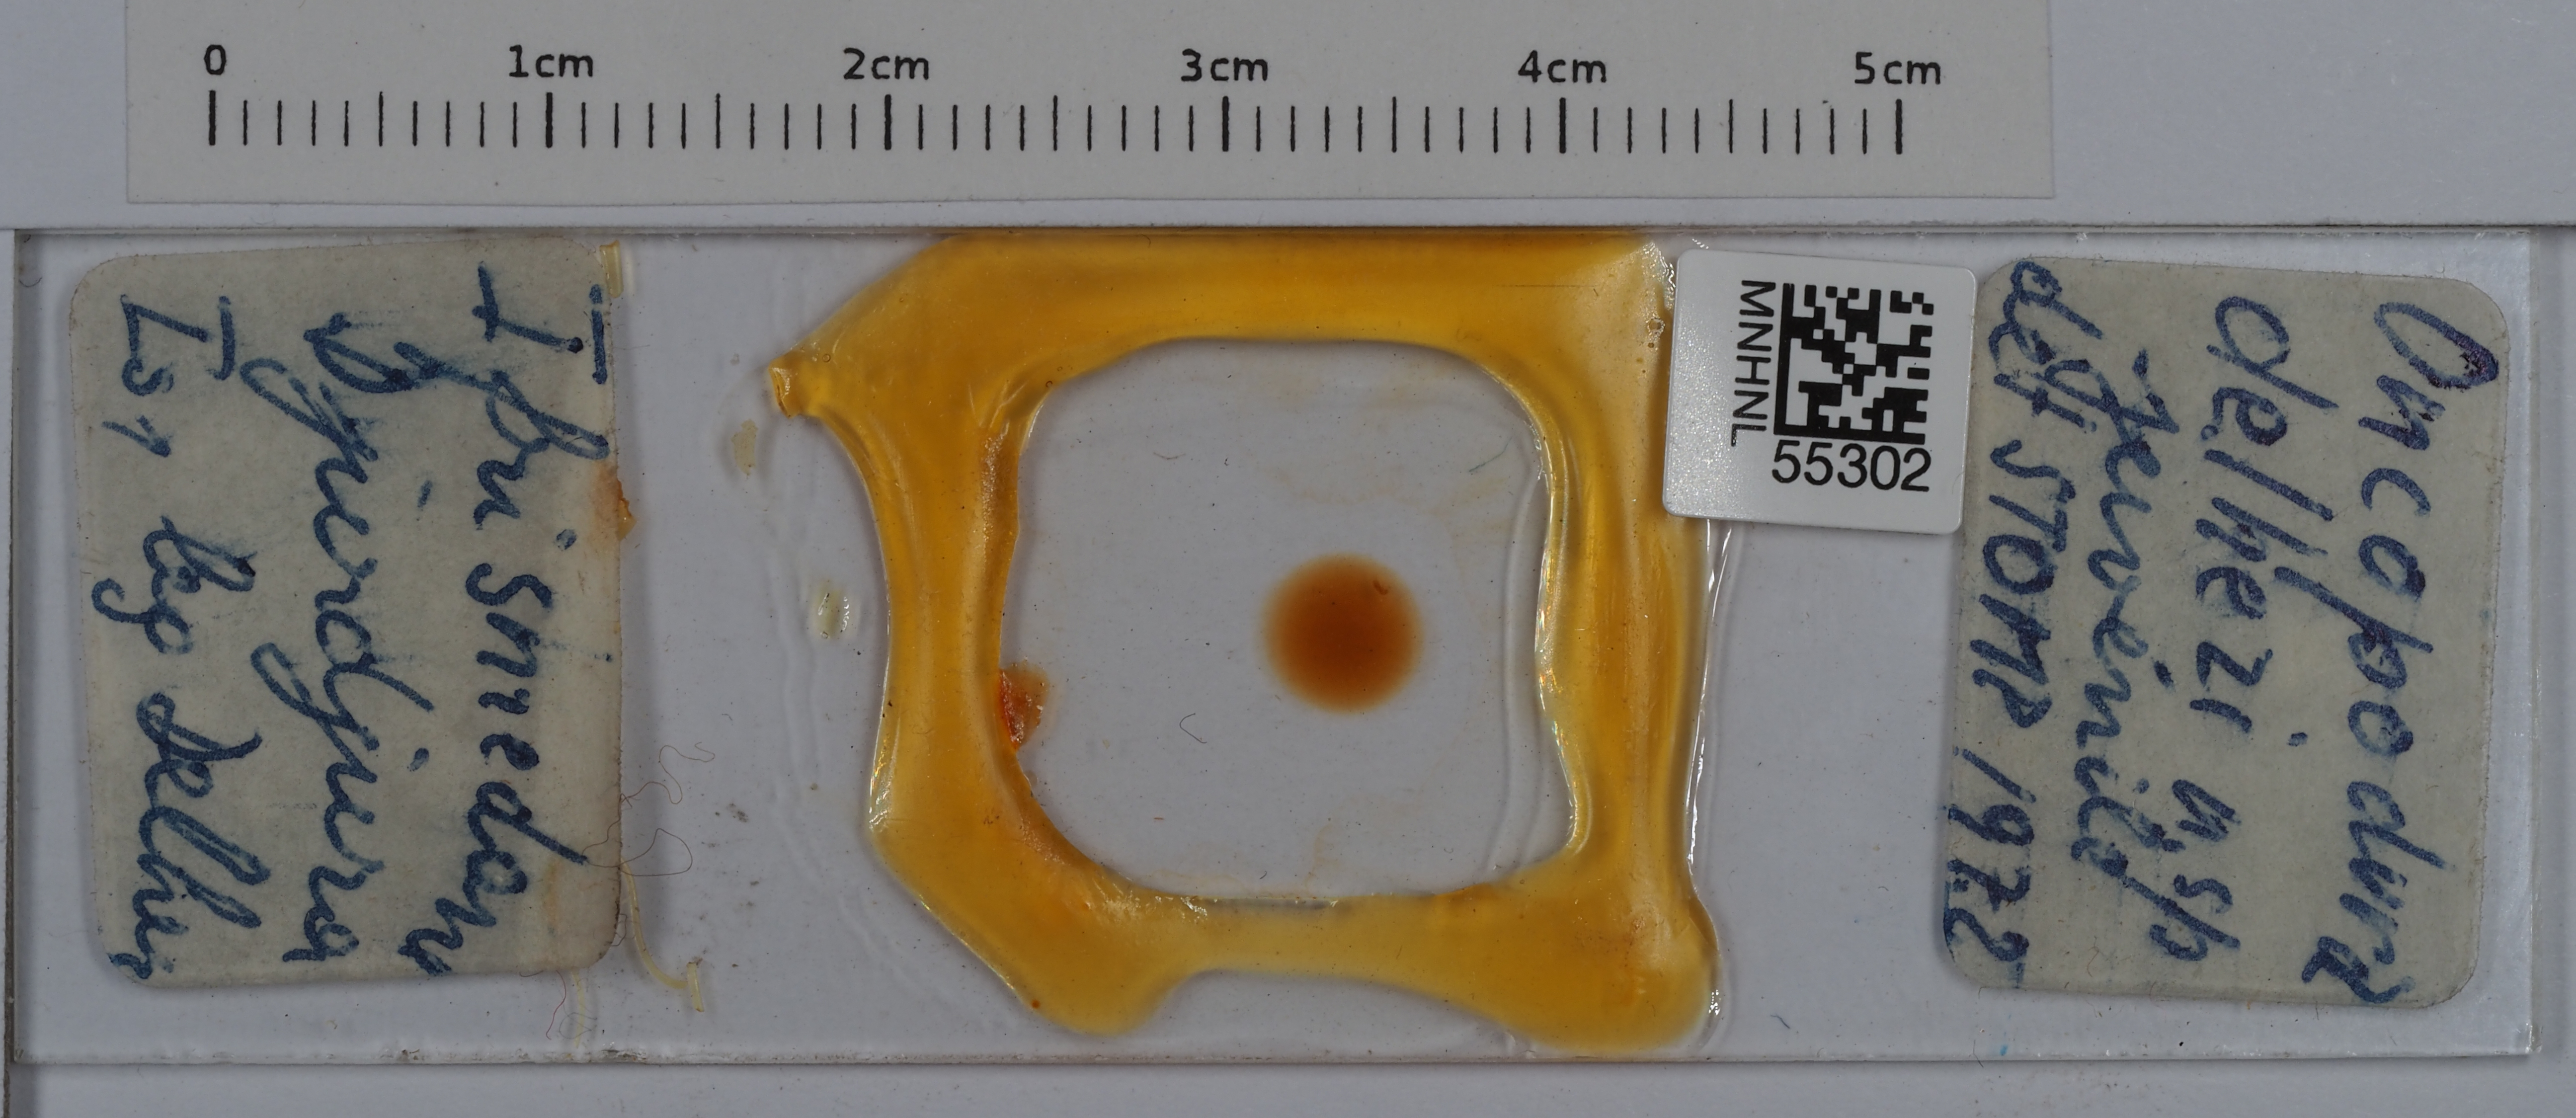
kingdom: Animalia
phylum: Arthropoda
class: Collembola
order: Entomobryomorpha
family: Oncopoduridae
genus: Oncopodura
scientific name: Oncopodura delhezi
